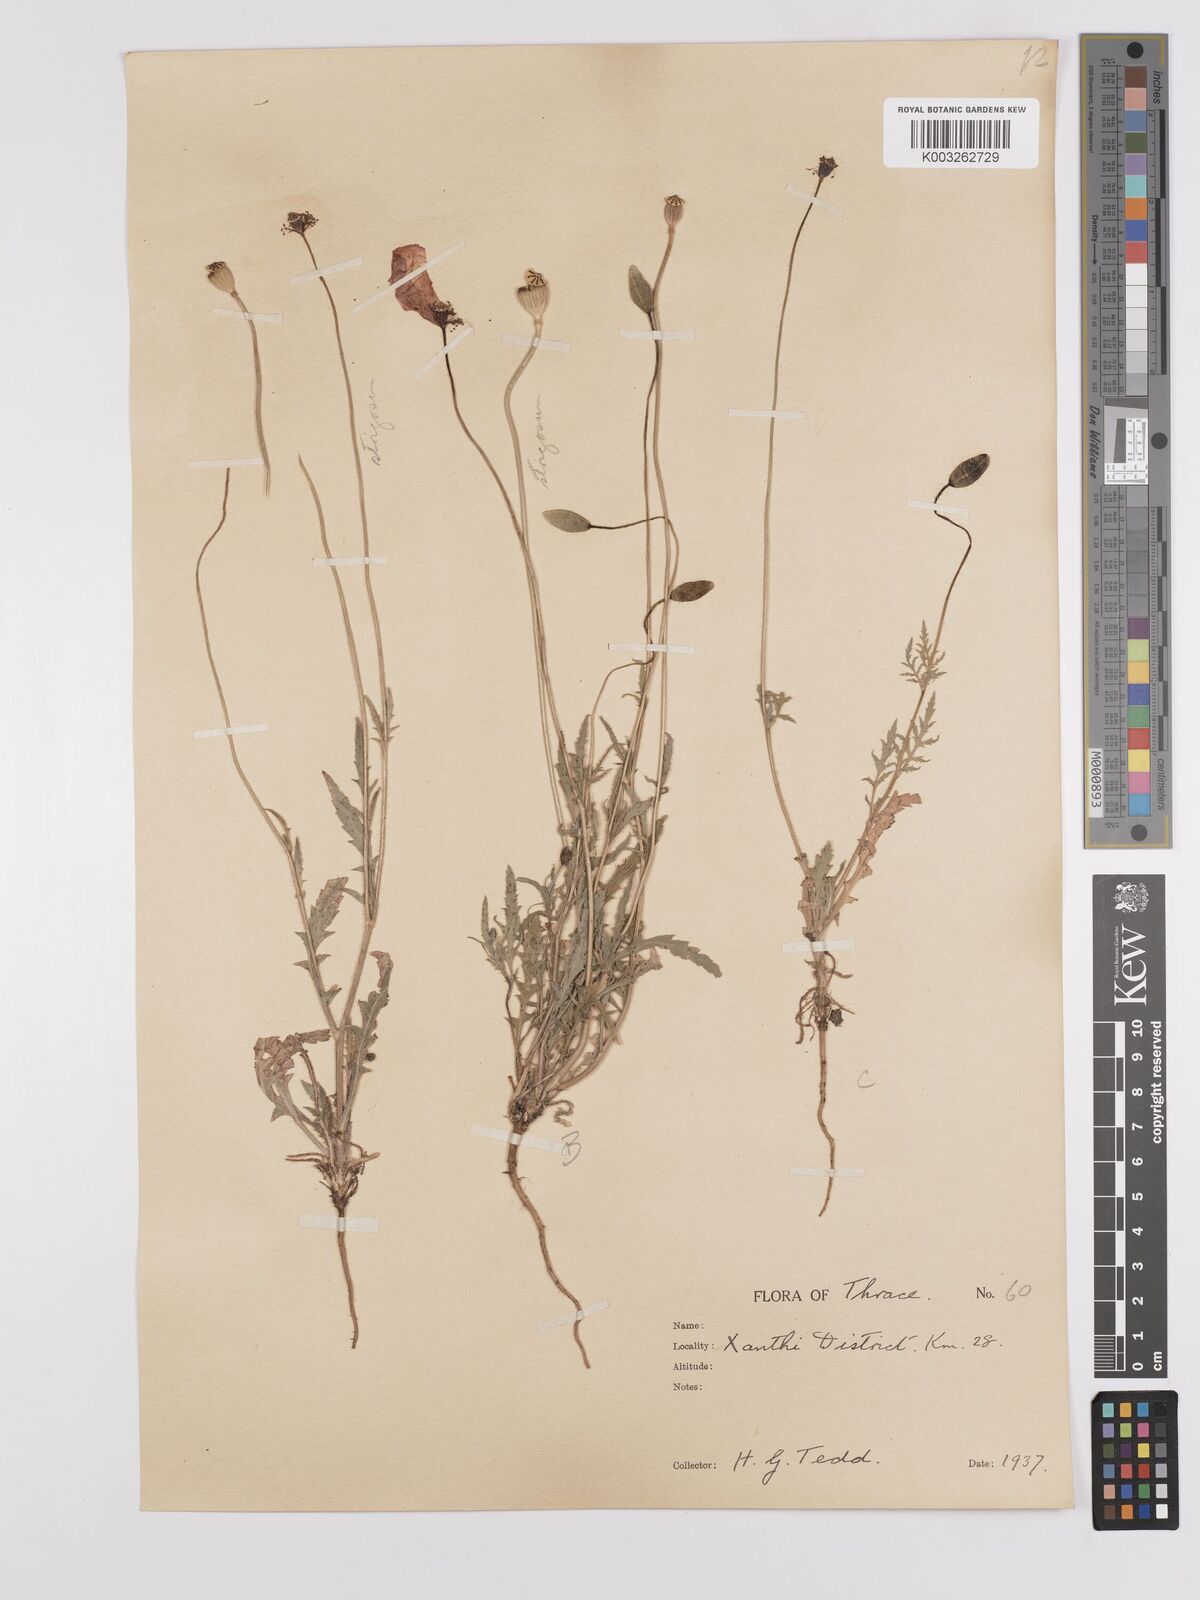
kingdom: Plantae
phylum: Tracheophyta
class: Magnoliopsida
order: Ranunculales
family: Papaveraceae
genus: Papaver
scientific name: Papaver
